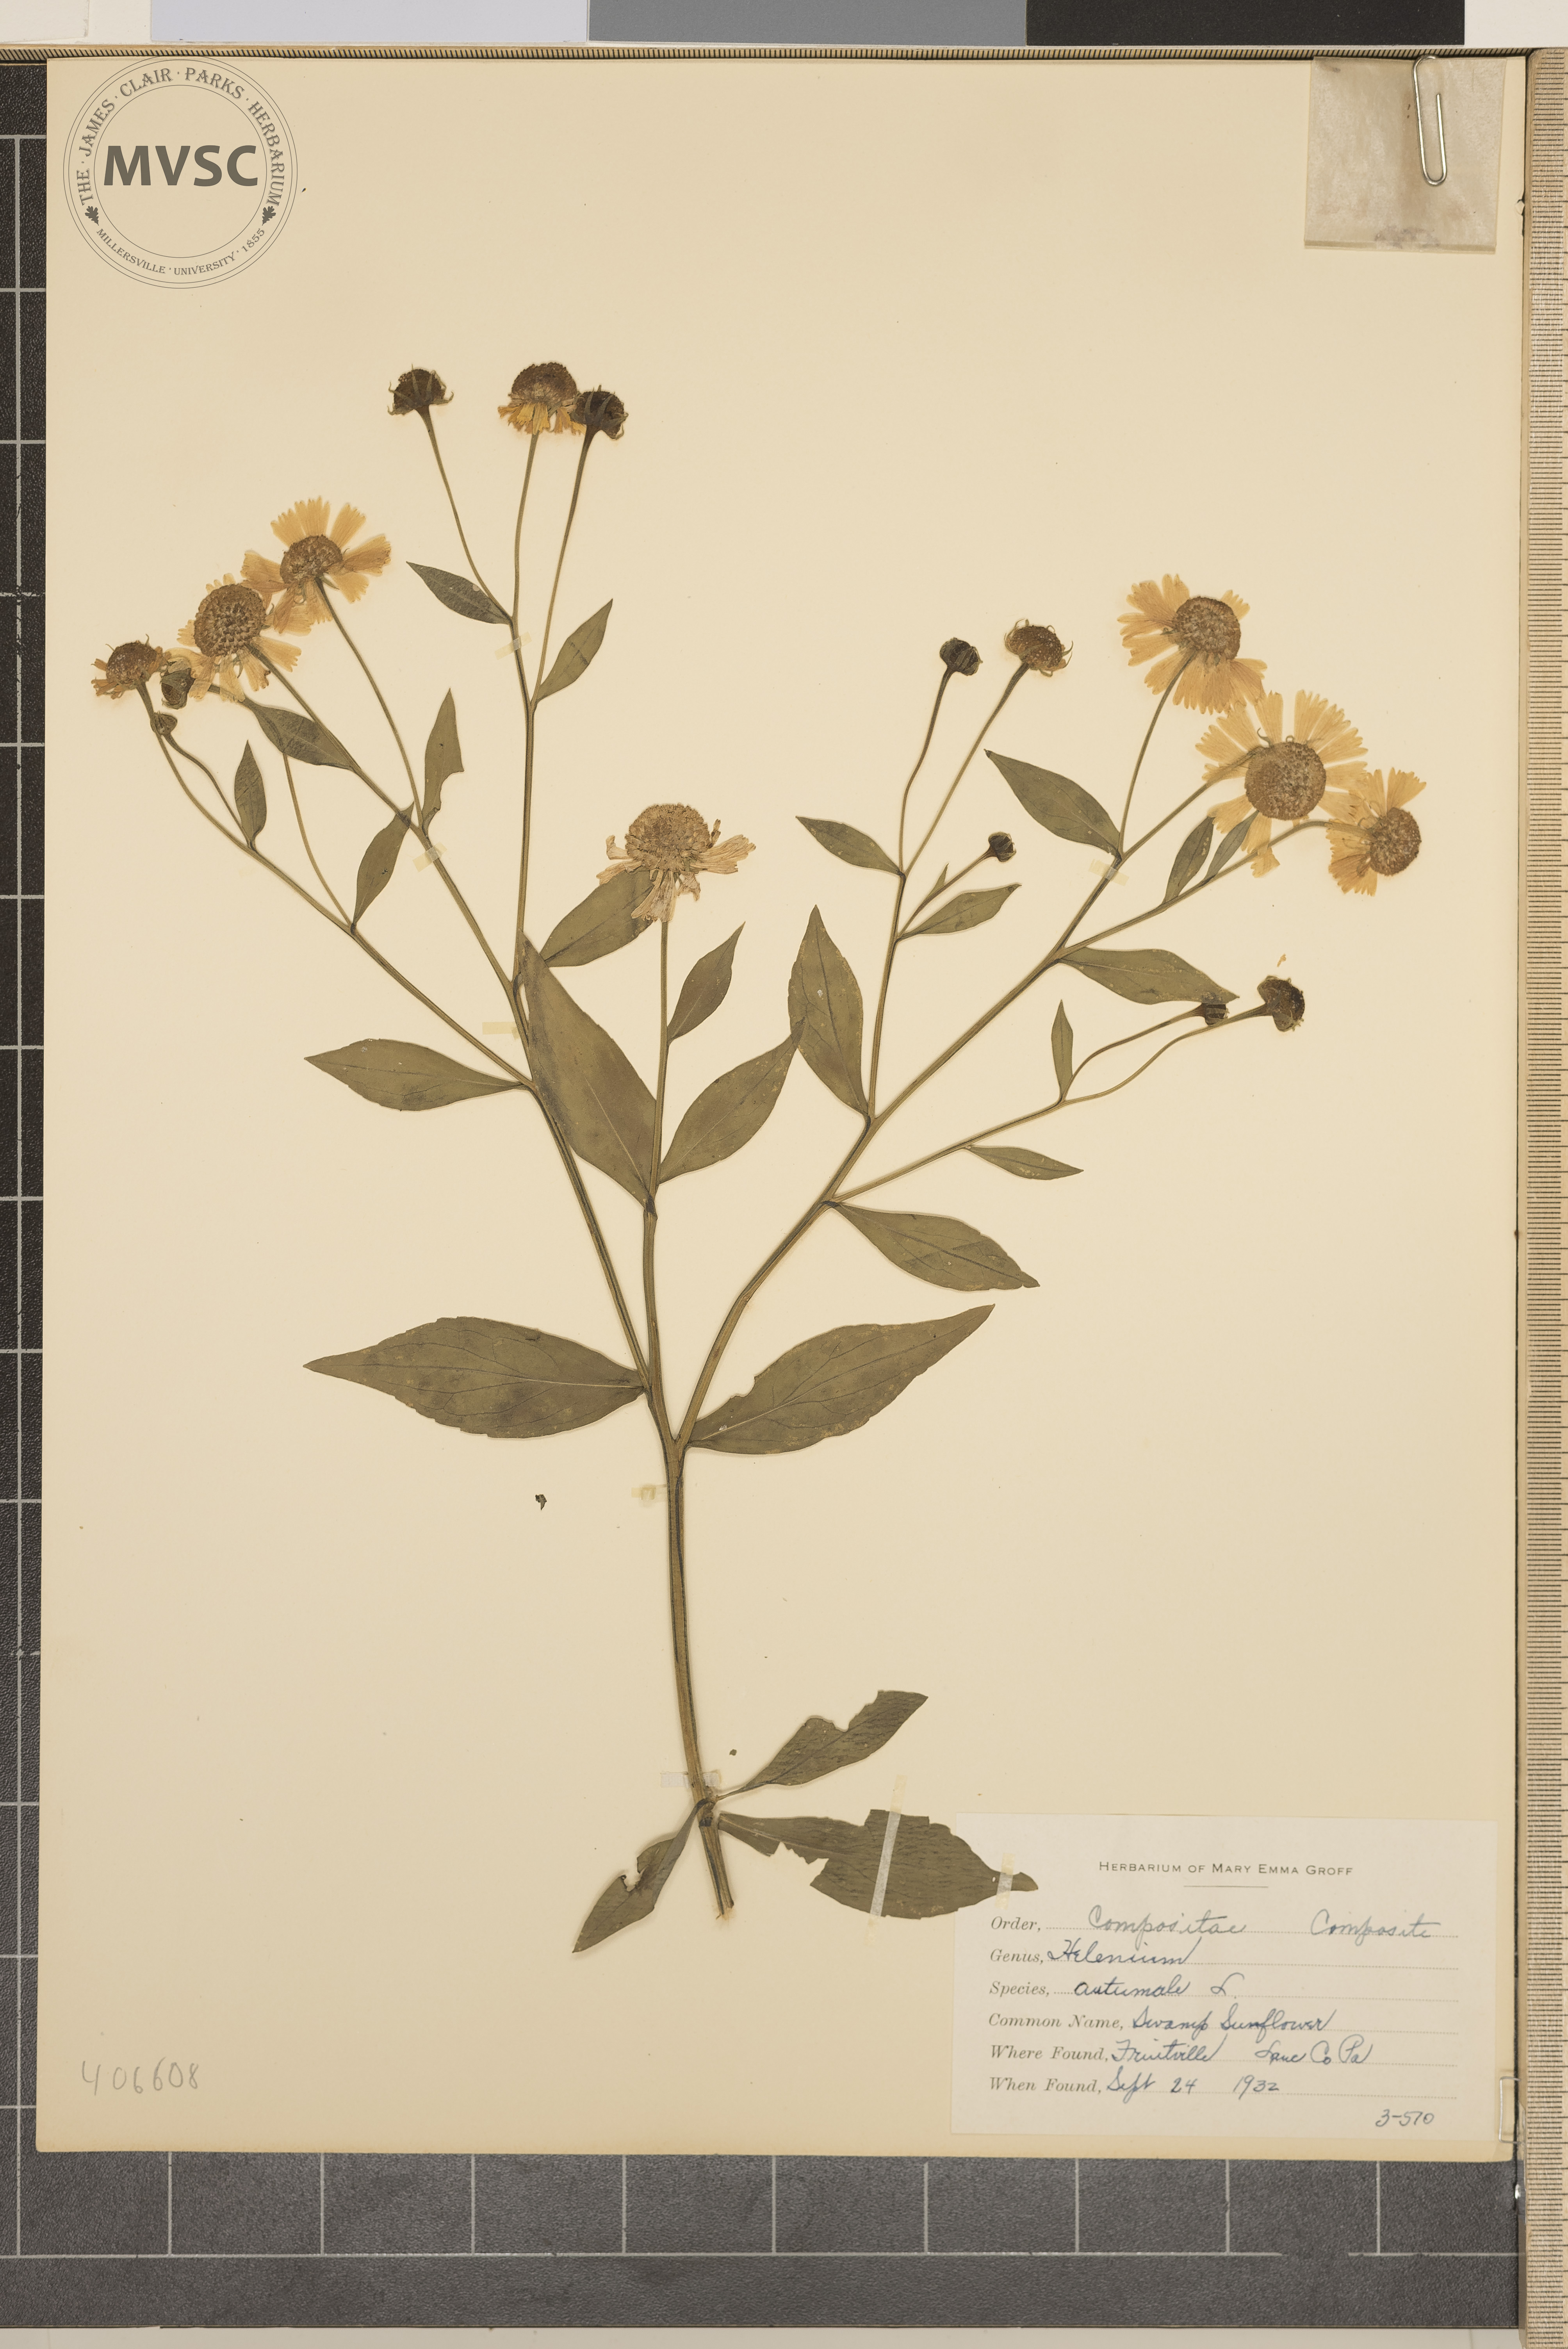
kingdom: Plantae
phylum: Tracheophyta
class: Magnoliopsida
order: Asterales
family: Asteraceae
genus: Helenium
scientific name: Helenium autumnale
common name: Swamp Sunflower
